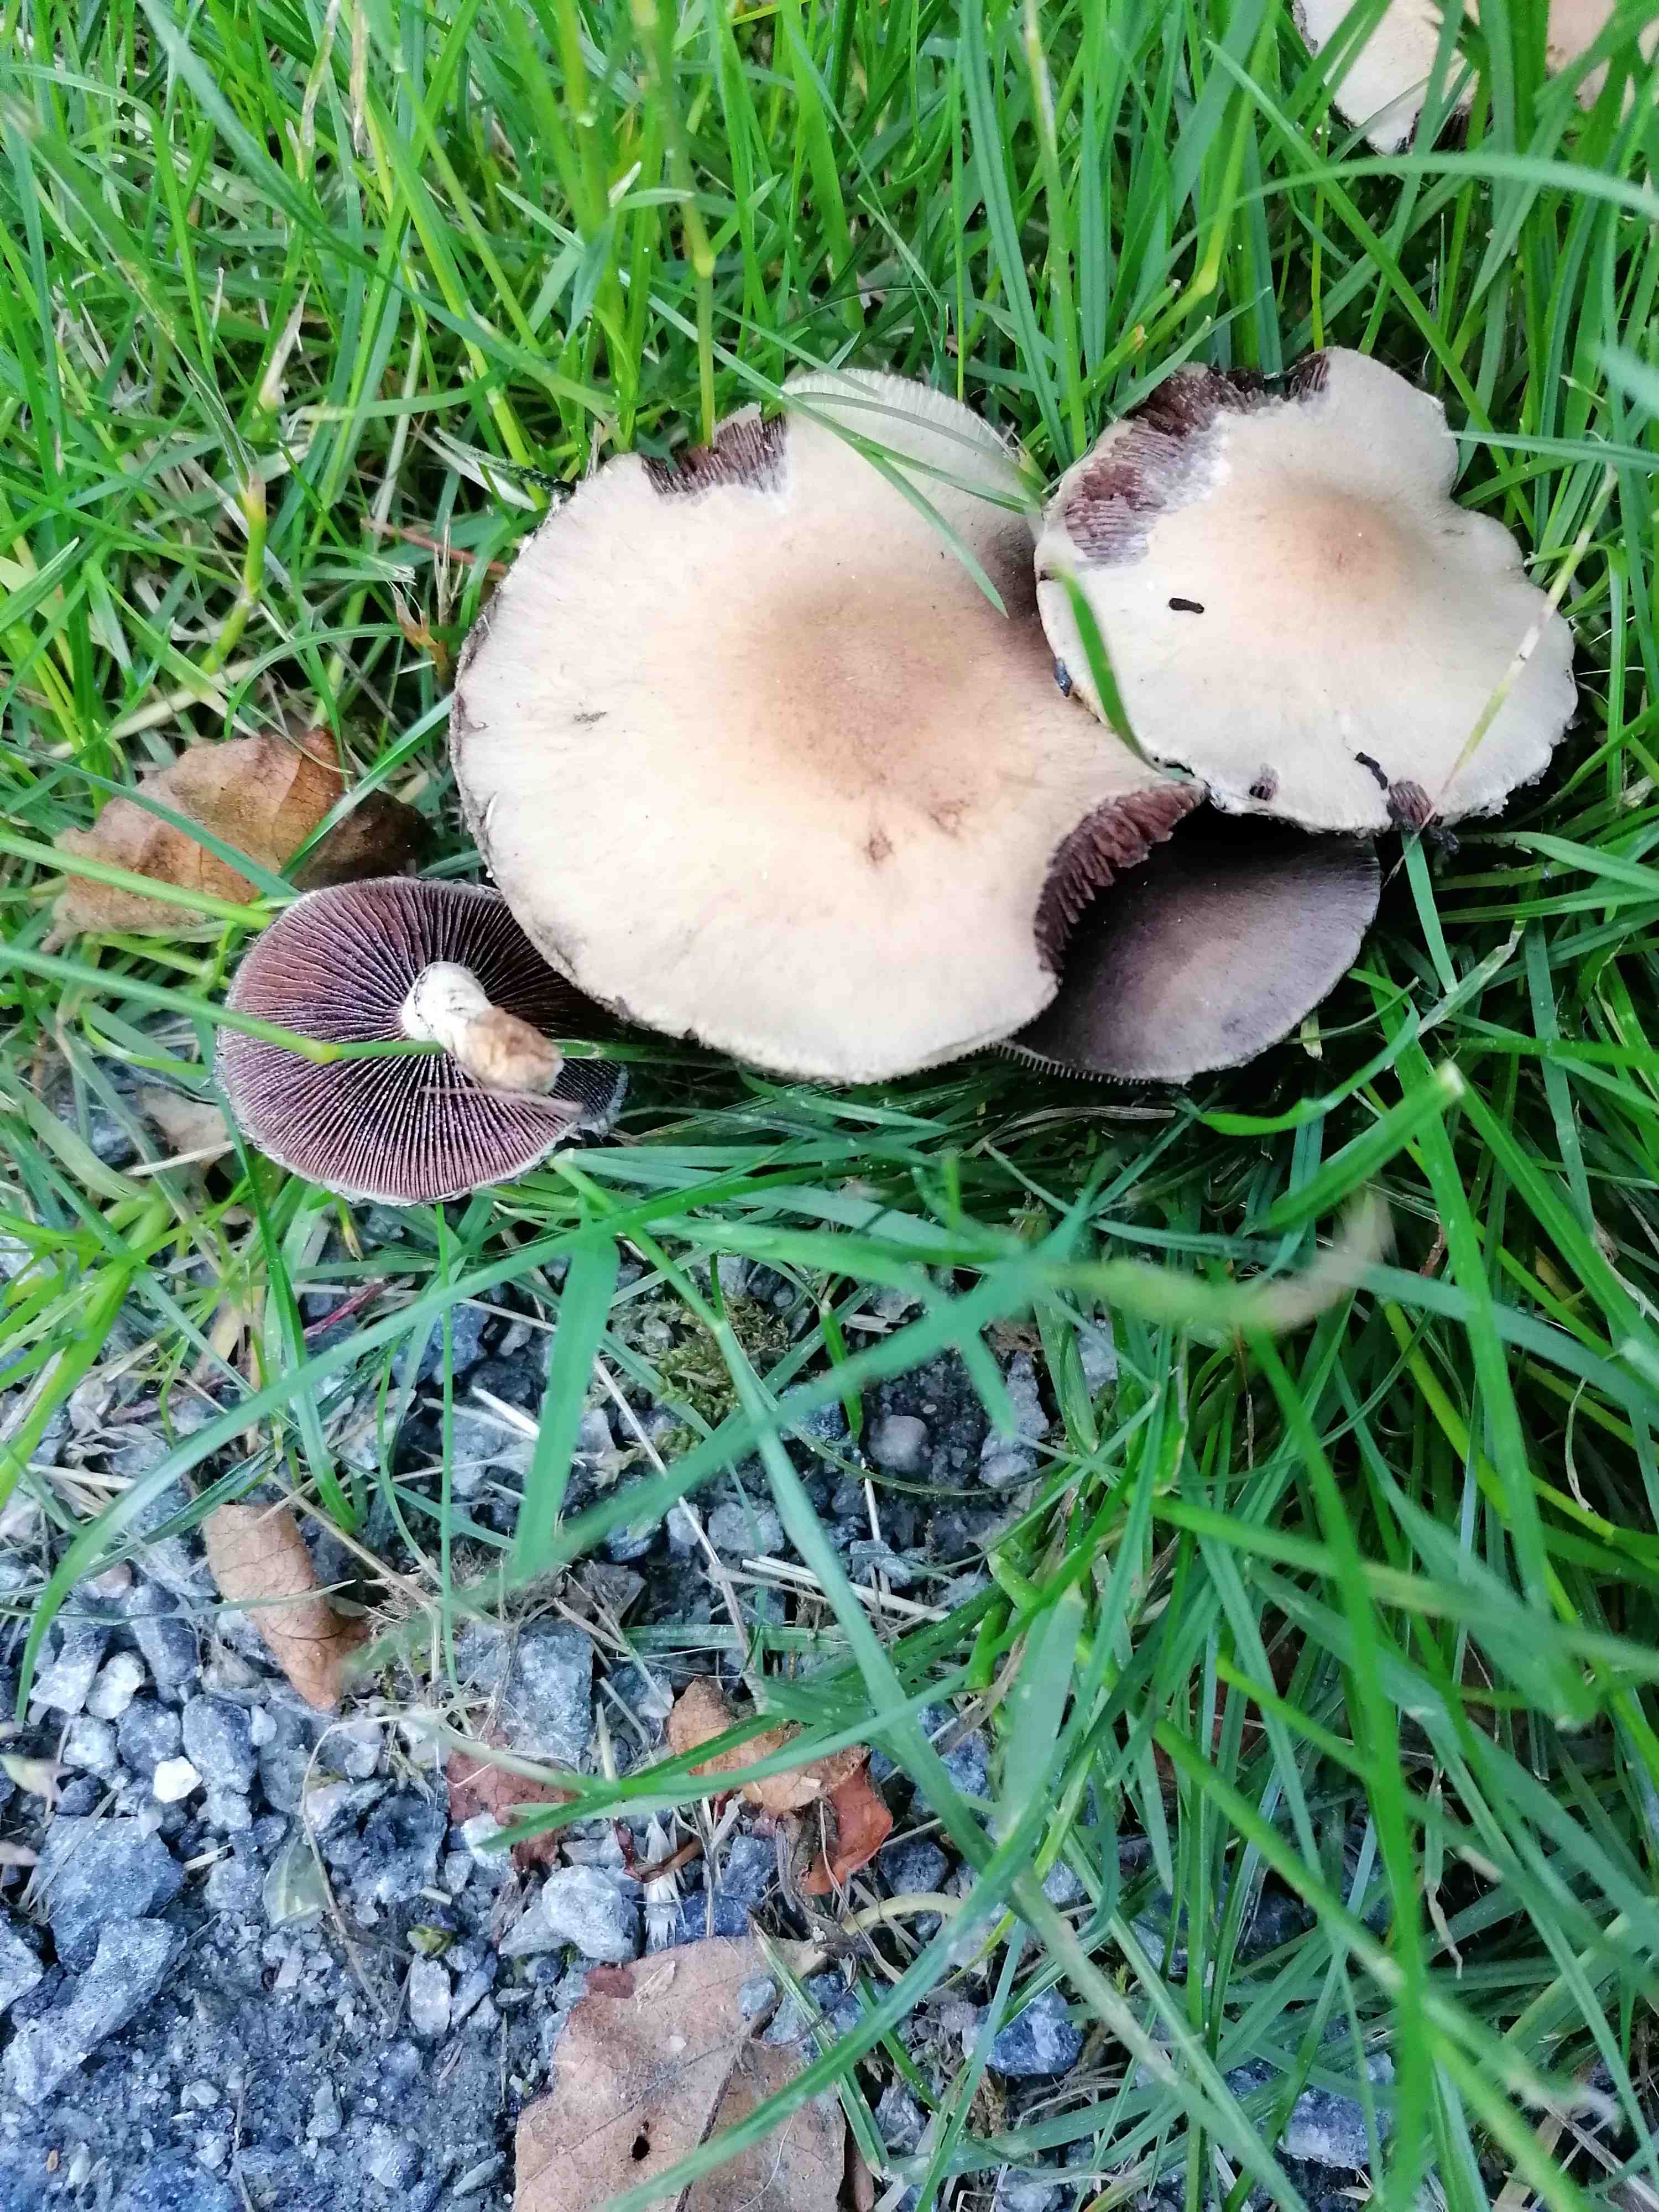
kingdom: Fungi
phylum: Basidiomycota
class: Agaricomycetes
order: Agaricales
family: Psathyrellaceae
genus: Lacrymaria
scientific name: Lacrymaria lacrymabunda
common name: grædende mørkhat
